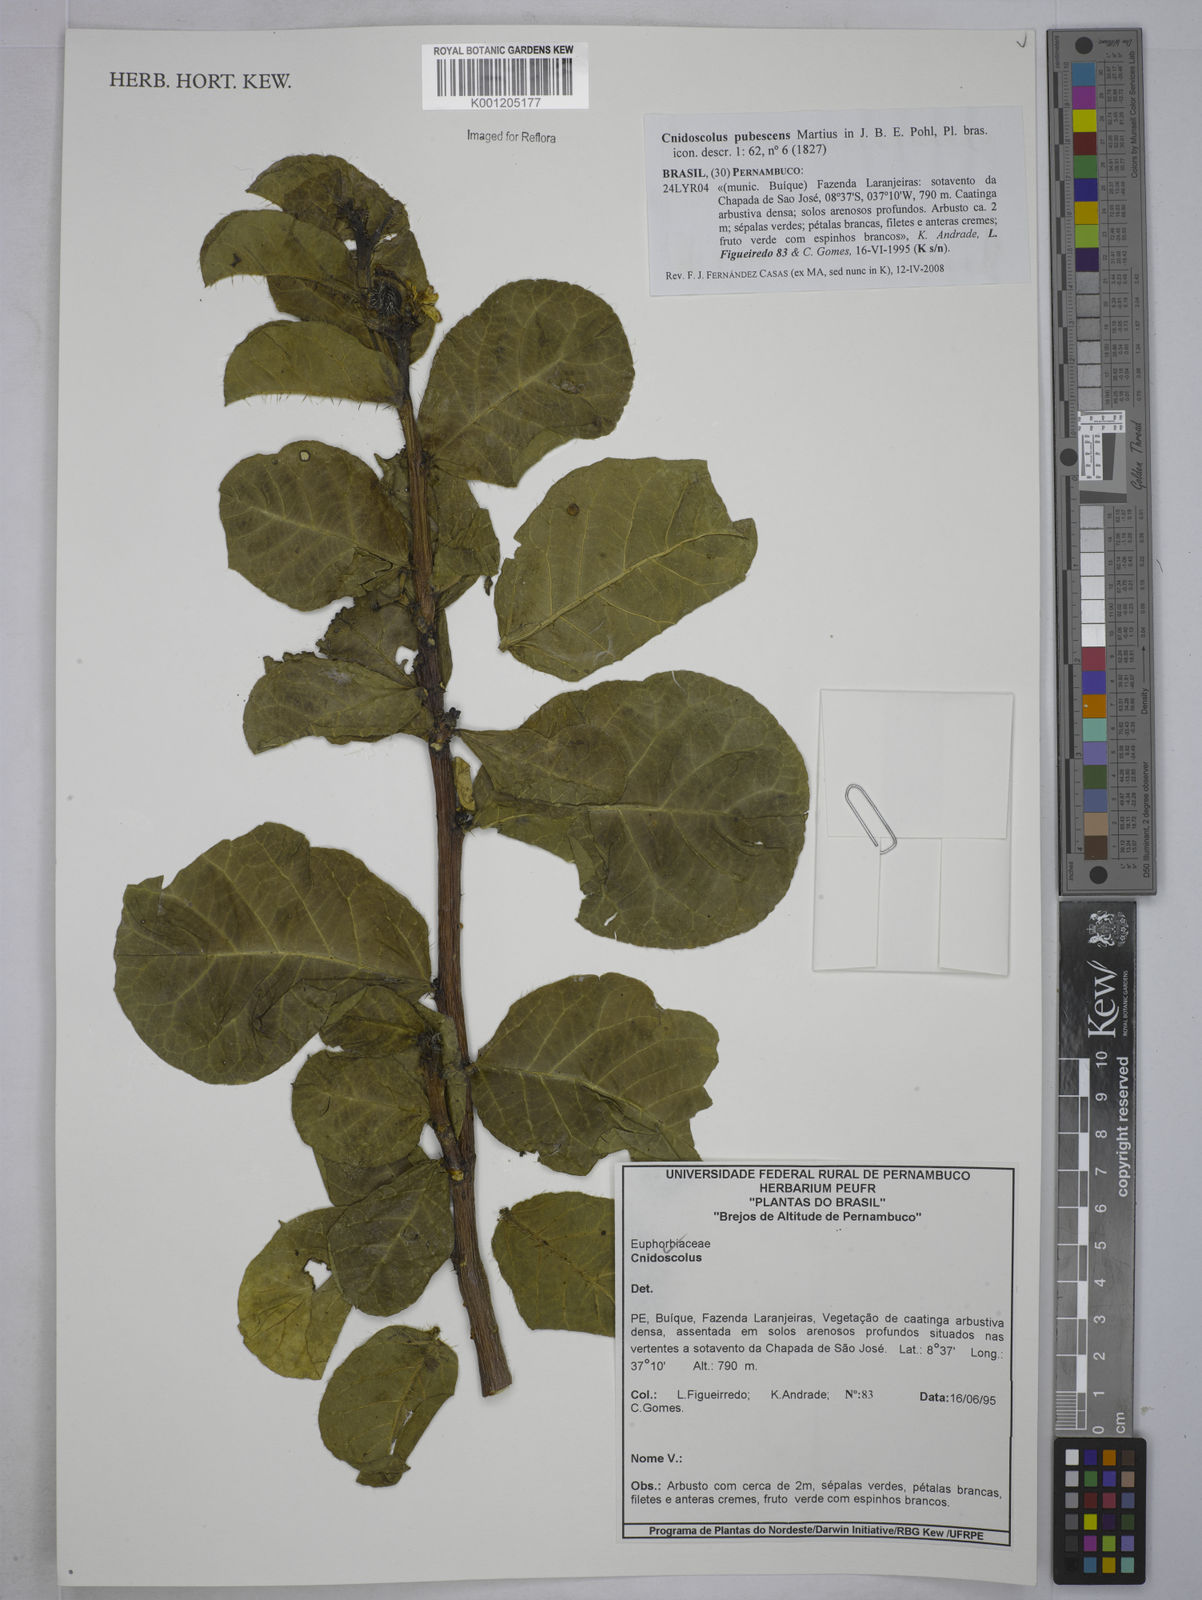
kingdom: Plantae
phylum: Tracheophyta
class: Magnoliopsida
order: Malpighiales
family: Euphorbiaceae
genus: Cnidoscolus
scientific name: Cnidoscolus pubescens
